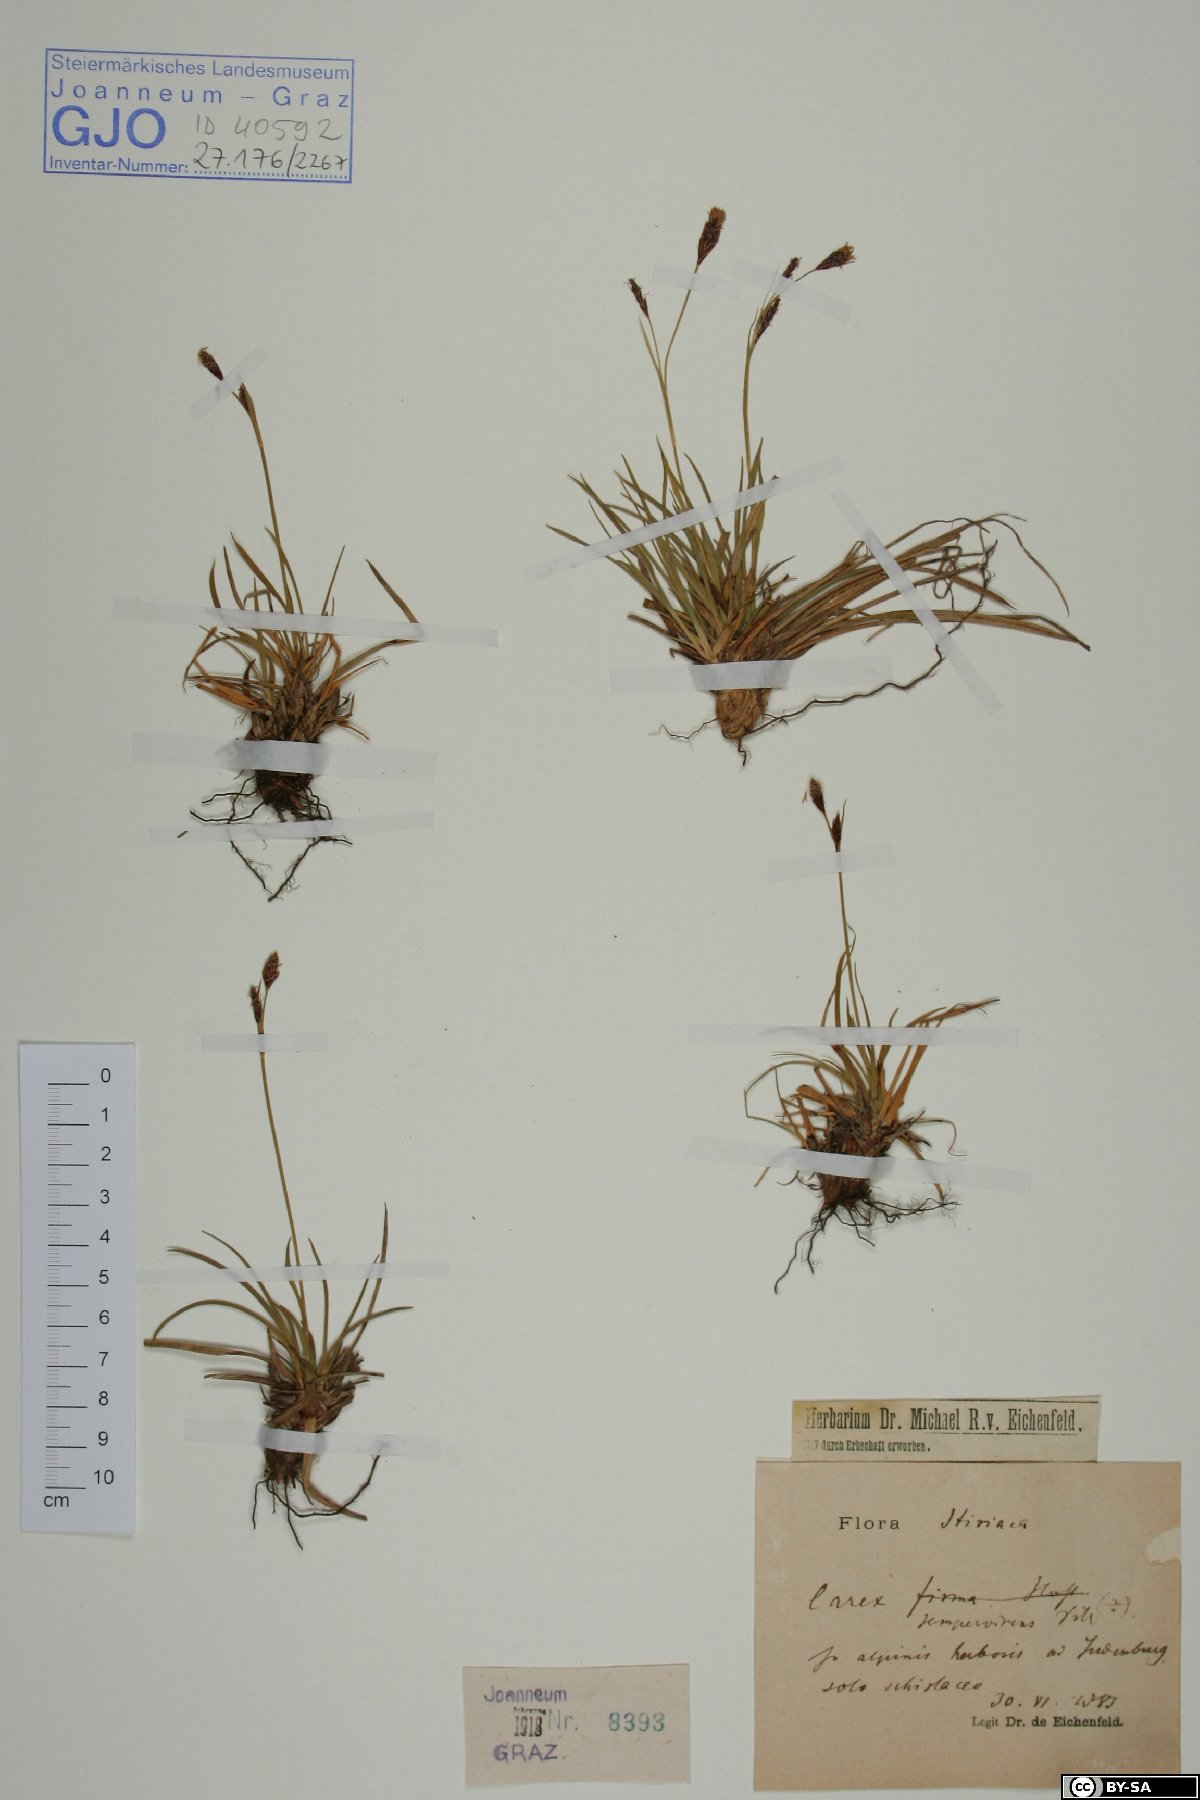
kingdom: Plantae
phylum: Tracheophyta
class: Liliopsida
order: Poales
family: Cyperaceae
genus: Carex
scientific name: Carex sempervirens
